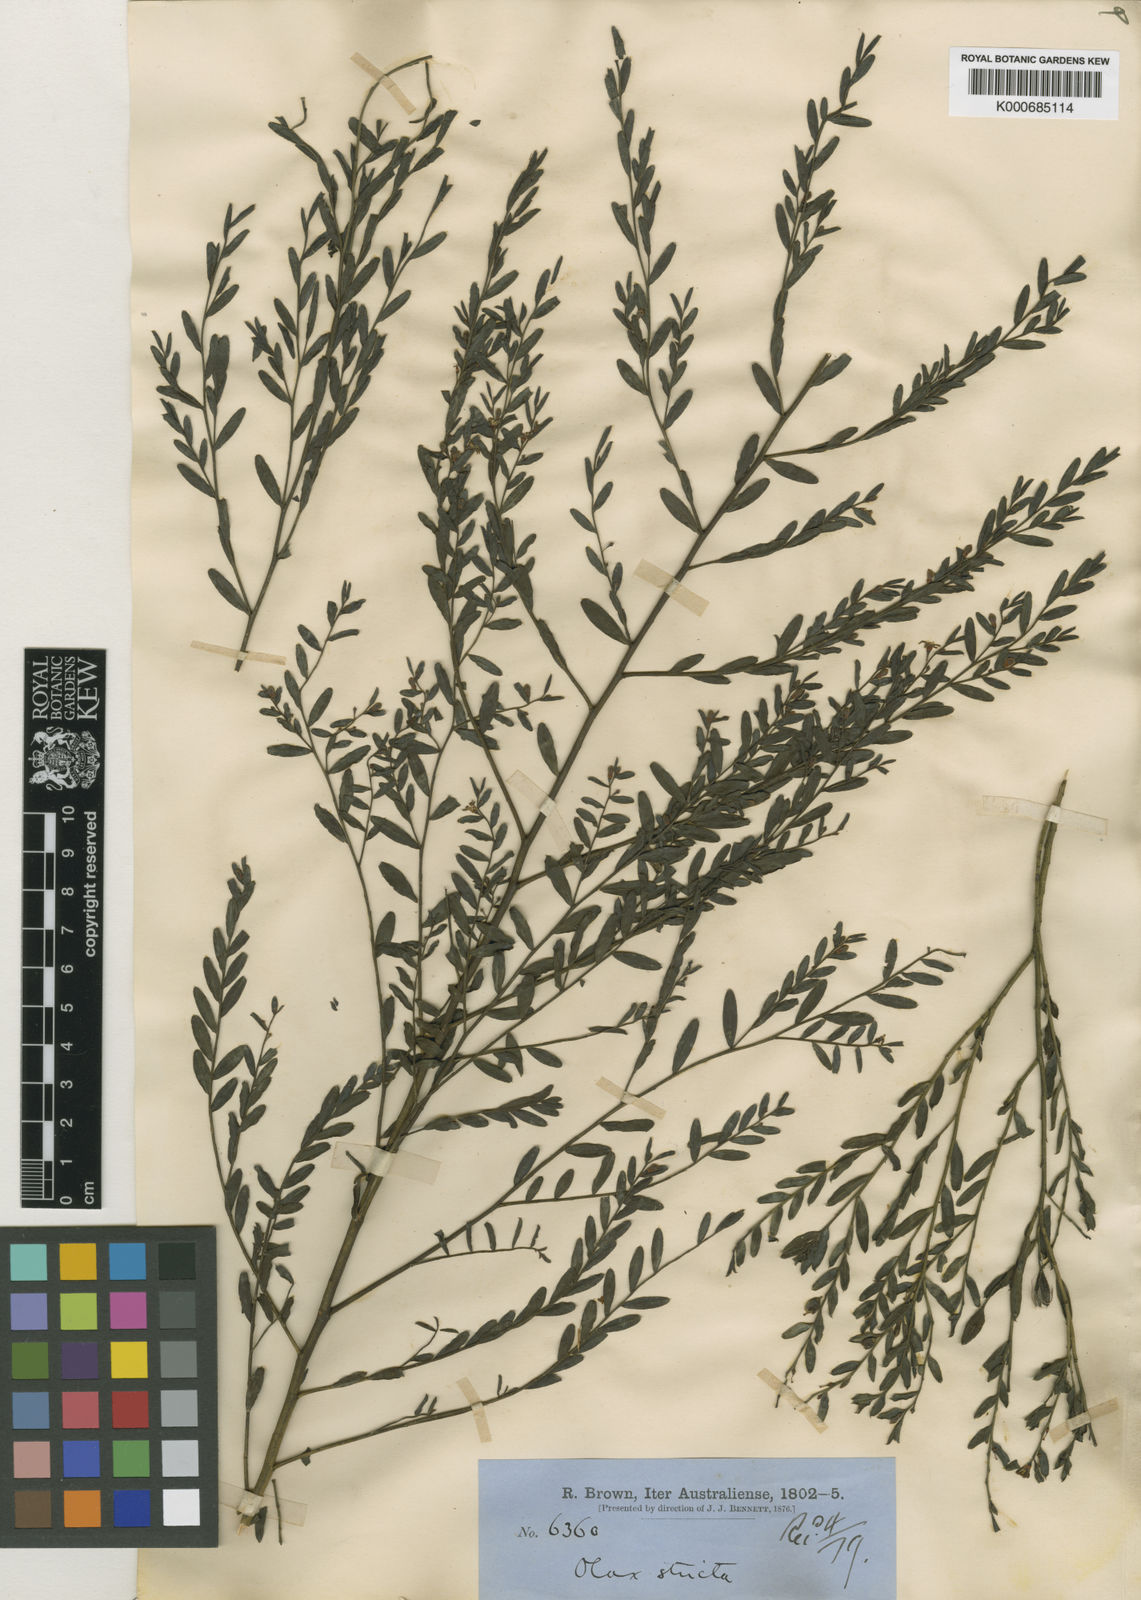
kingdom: Plantae
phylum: Tracheophyta
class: Magnoliopsida
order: Santalales
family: Olacaceae
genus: Olax
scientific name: Olax stricta
